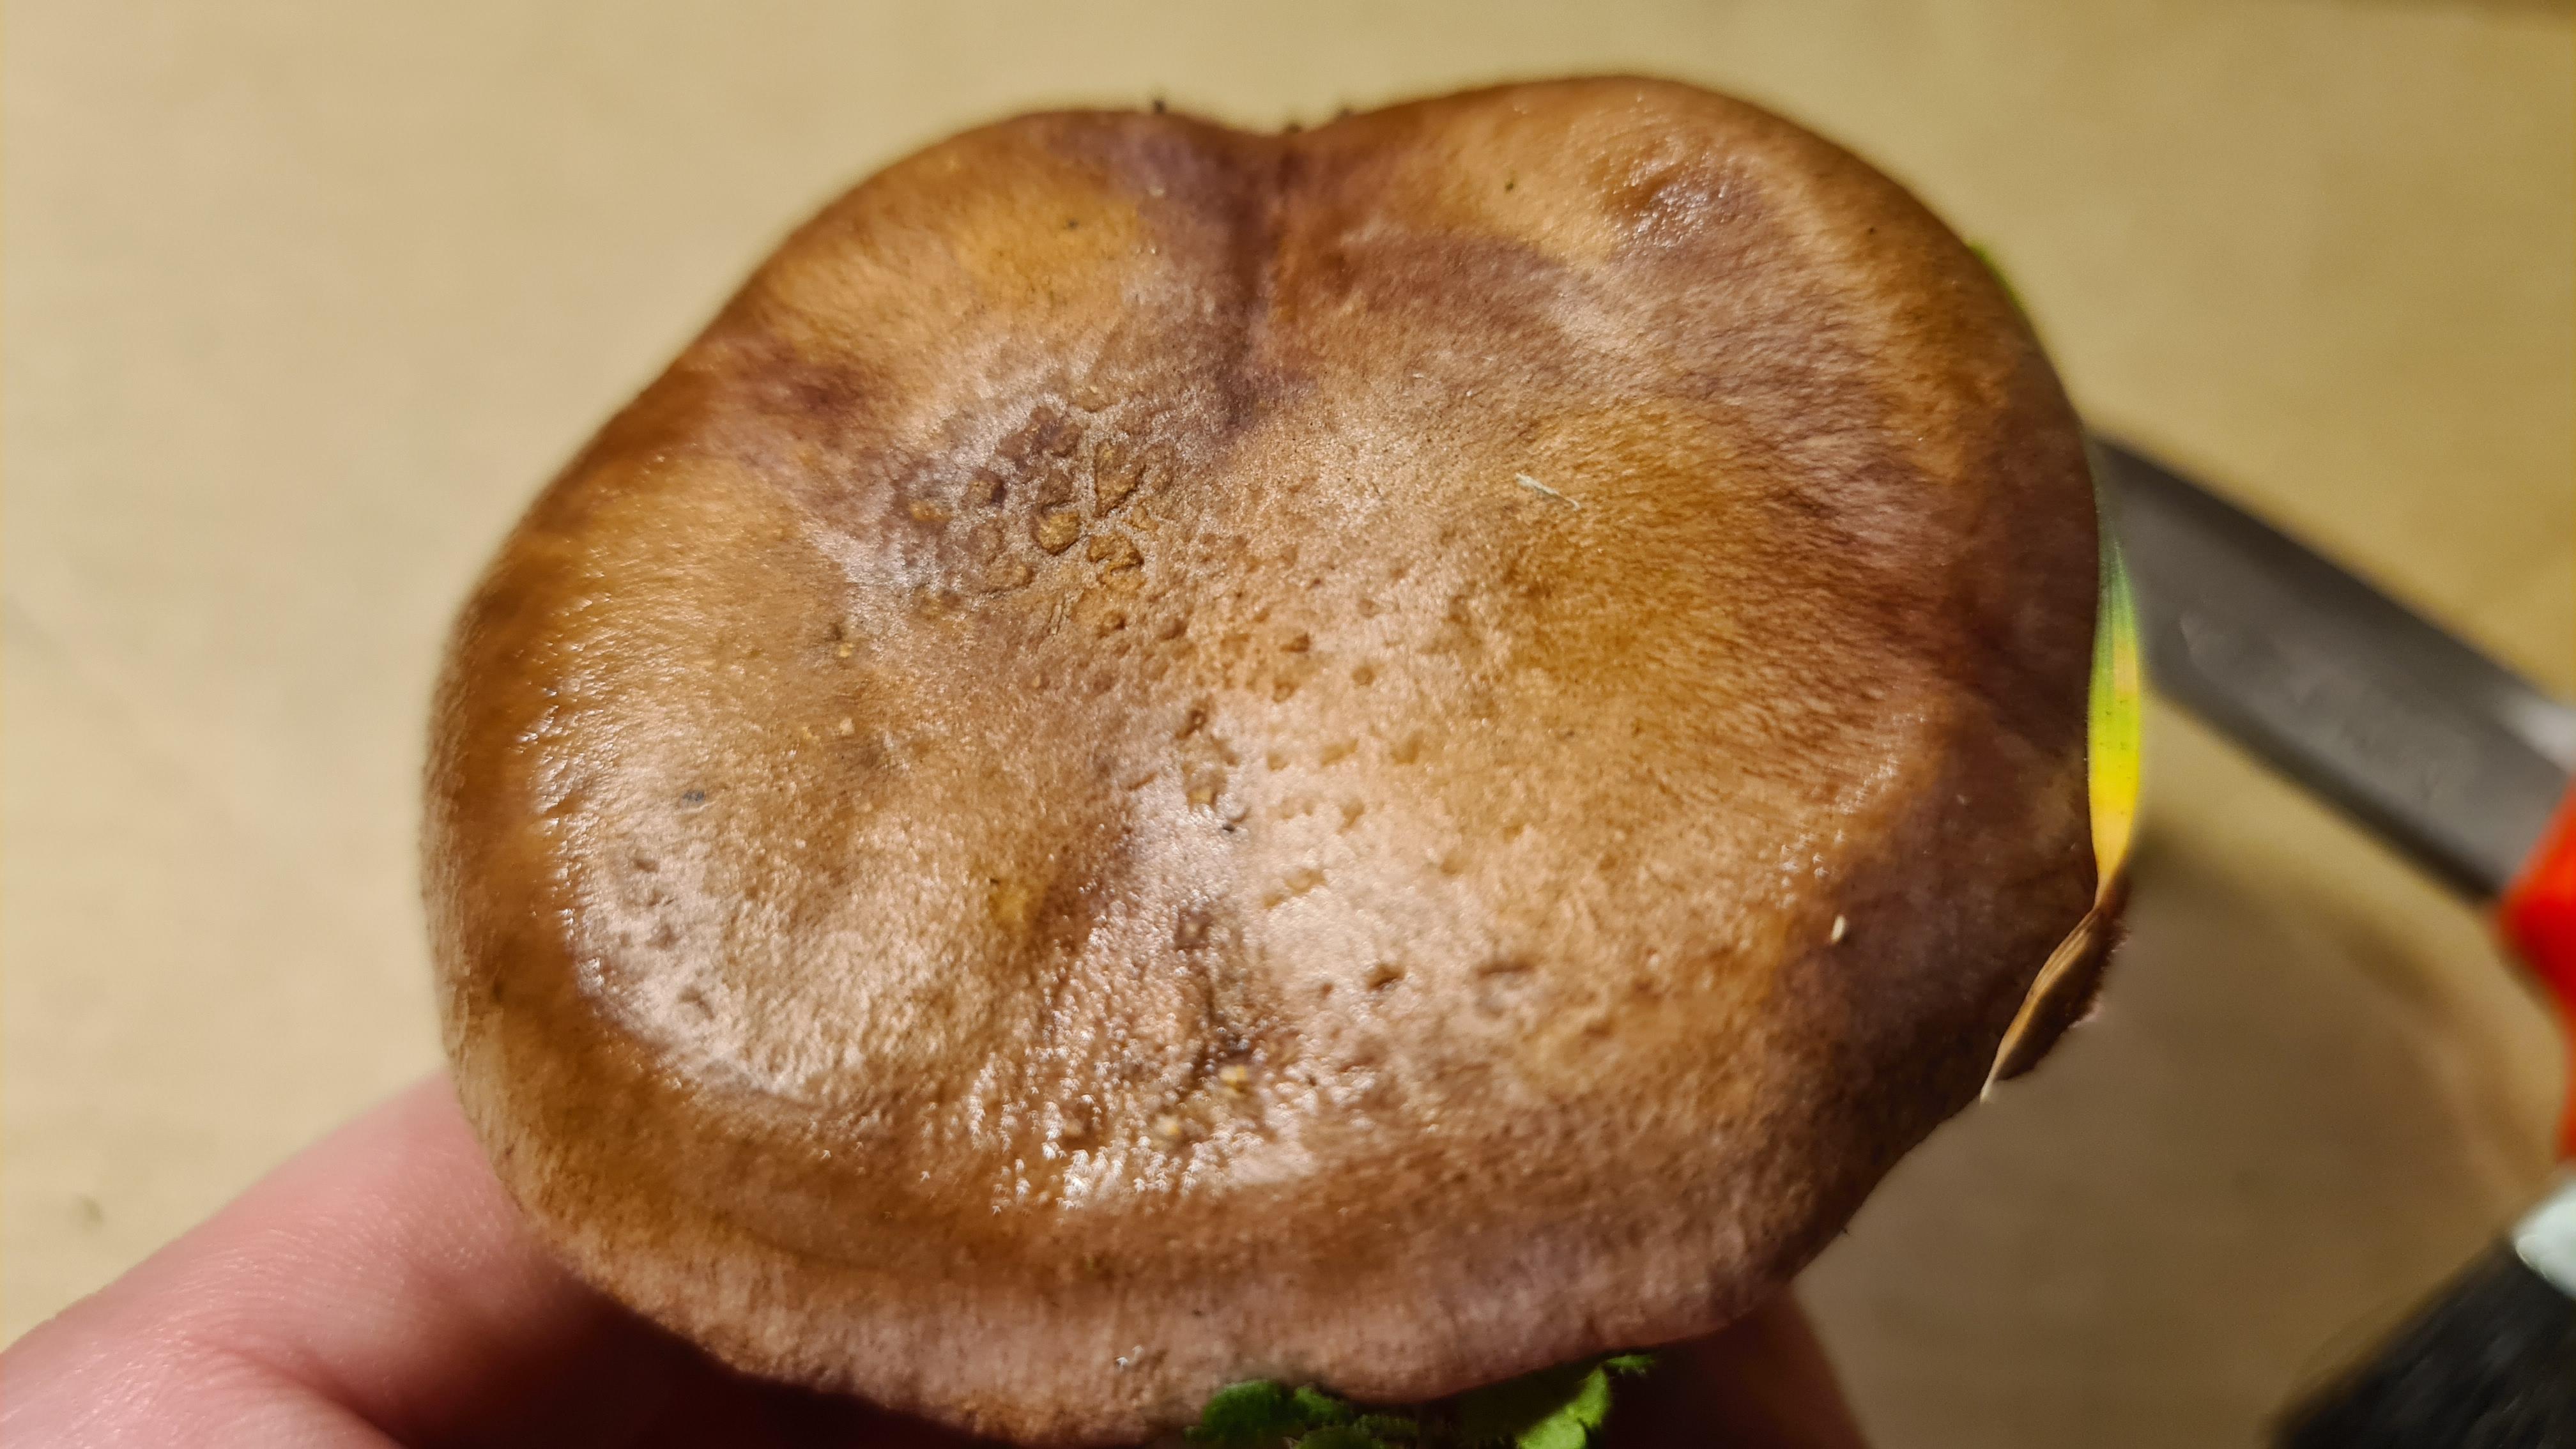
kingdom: Fungi
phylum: Basidiomycota
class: Agaricomycetes
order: Agaricales
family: Cortinariaceae
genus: Phlegmacium
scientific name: Phlegmacium balteatocumatile
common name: violettrådet slørhat
